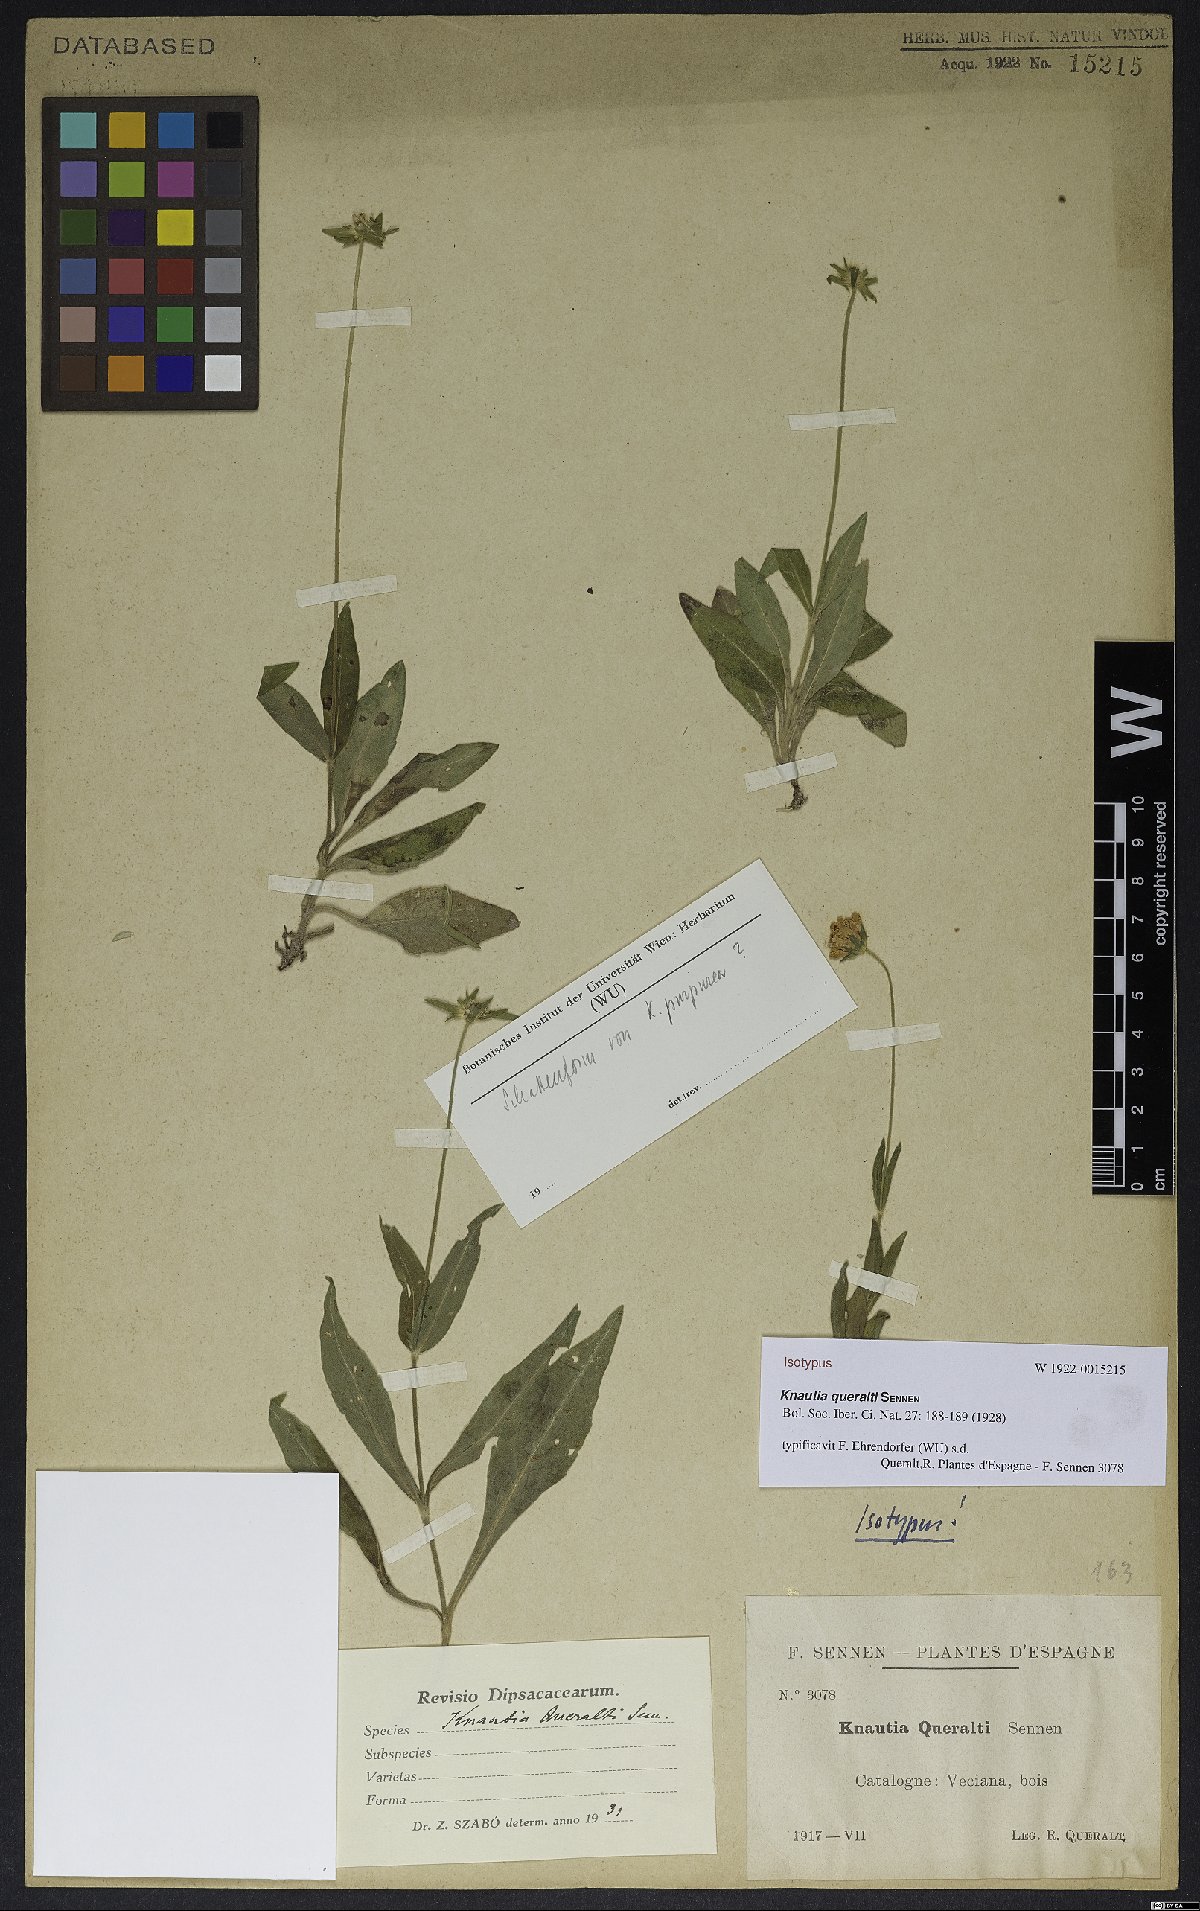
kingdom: Plantae
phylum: Tracheophyta
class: Magnoliopsida
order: Dipsacales
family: Caprifoliaceae
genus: Knautia
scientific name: Knautia queraltii
